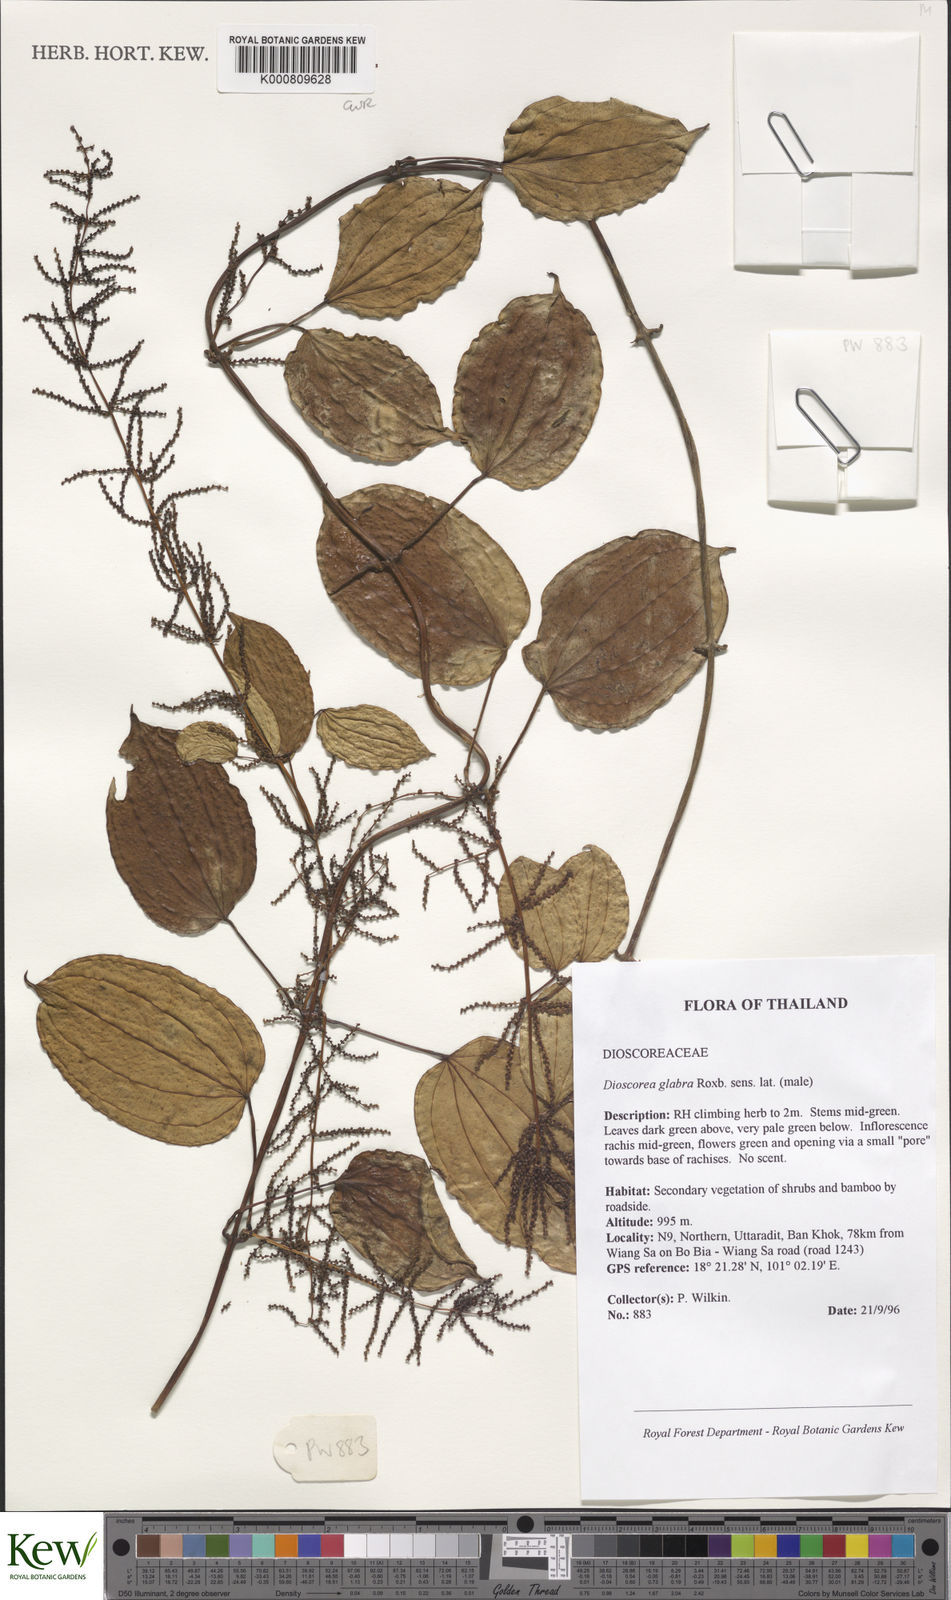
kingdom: Plantae
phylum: Tracheophyta
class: Liliopsida
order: Dioscoreales
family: Dioscoreaceae
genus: Dioscorea
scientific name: Dioscorea glabra
